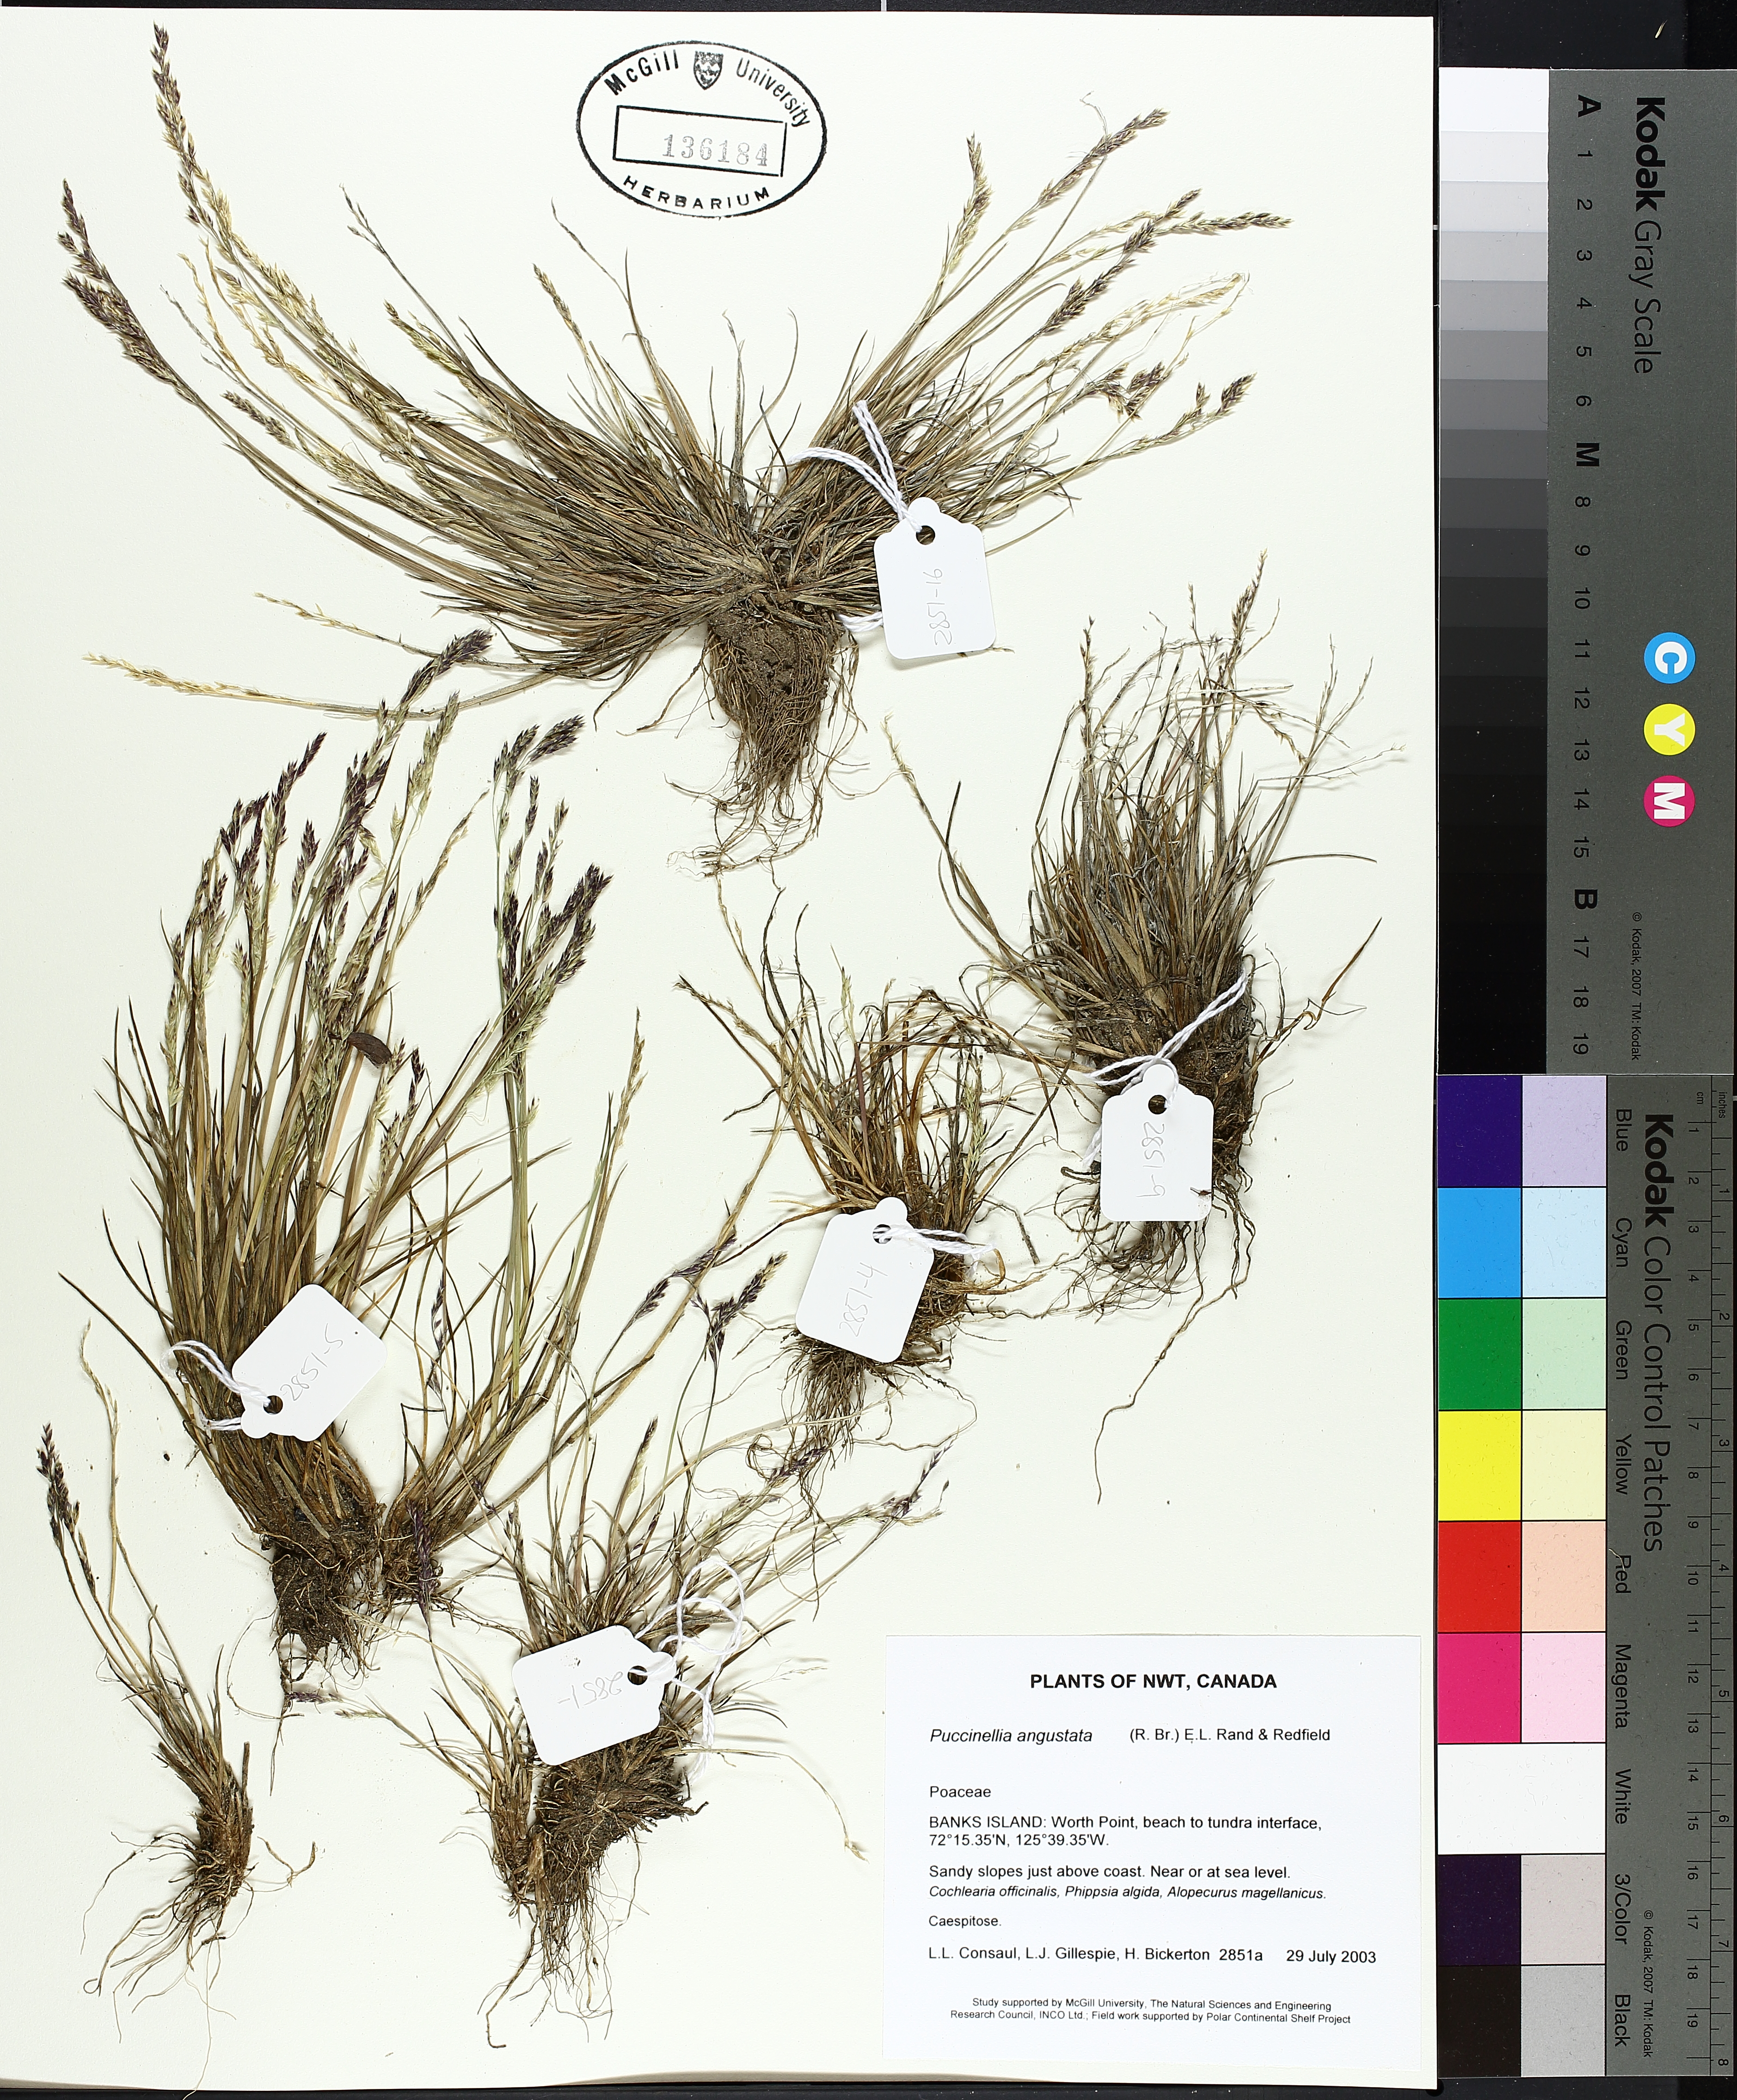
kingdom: Plantae
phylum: Tracheophyta
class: Liliopsida
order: Poales
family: Poaceae
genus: Puccinellia
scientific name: Puccinellia angustata
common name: Narrow alkaligrass
